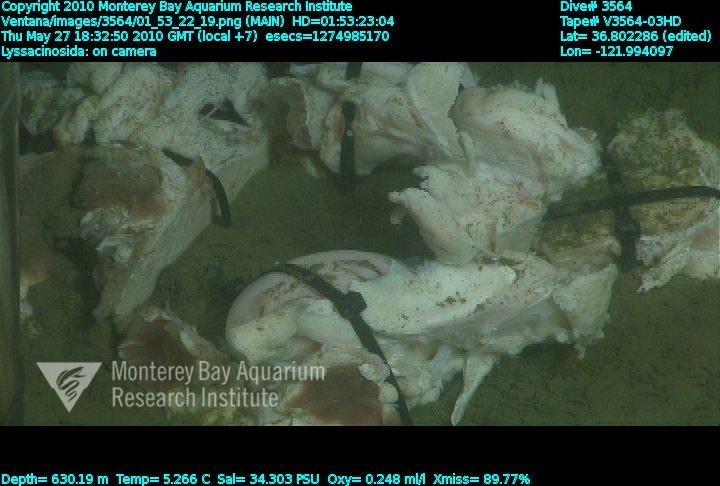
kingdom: Animalia
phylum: Porifera
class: Hexactinellida
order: Lyssacinosida
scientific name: Lyssacinosida
